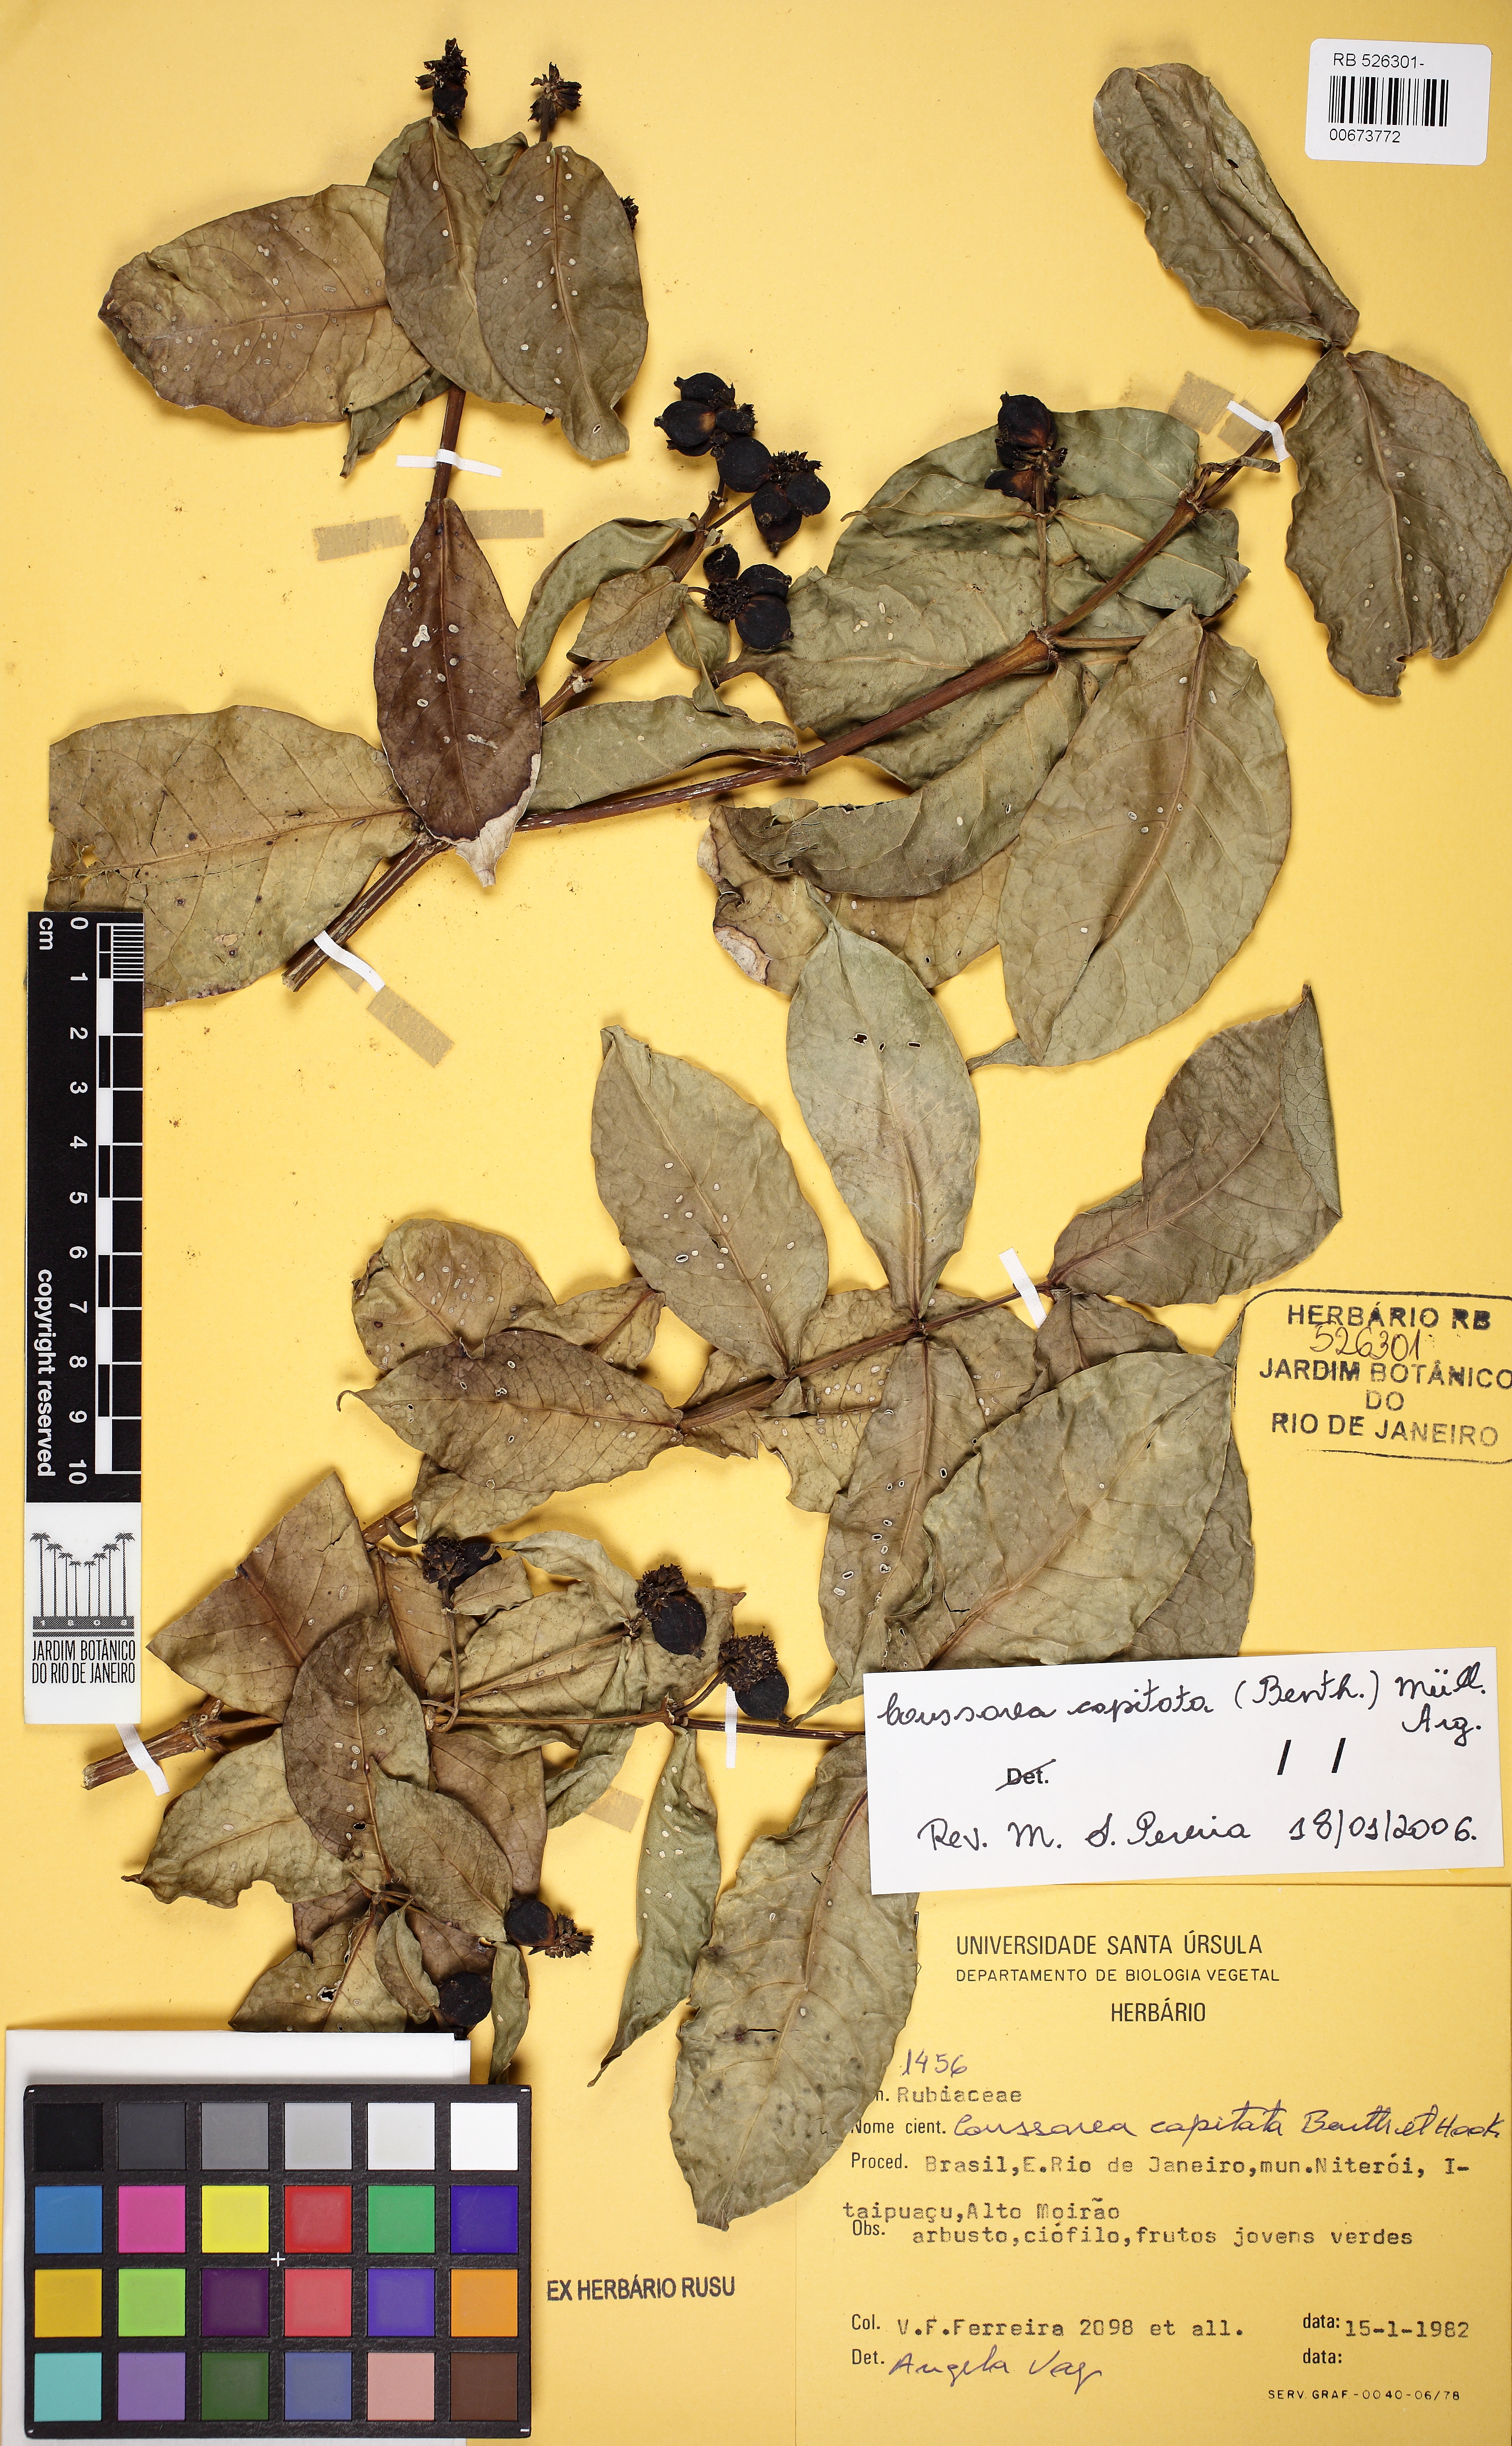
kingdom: Plantae
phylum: Tracheophyta
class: Magnoliopsida
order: Gentianales
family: Rubiaceae
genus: Coussarea
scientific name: Coussarea capitata
